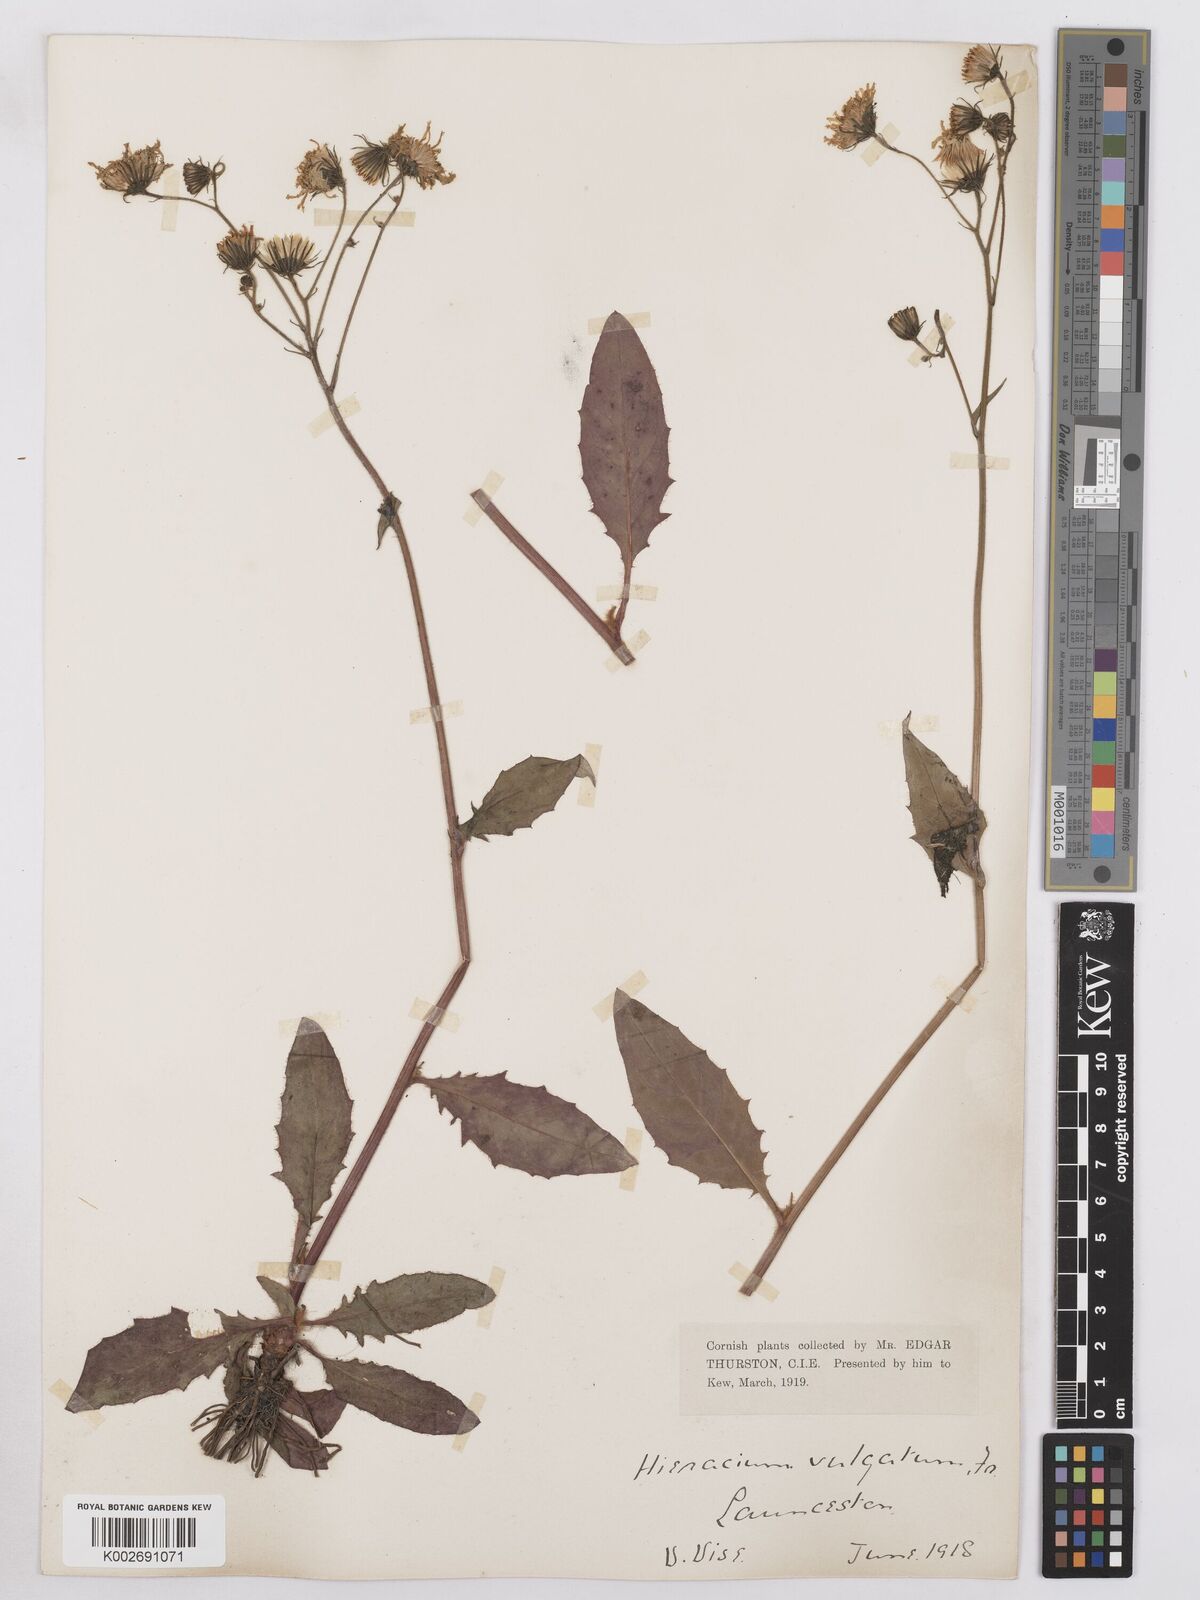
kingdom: Plantae
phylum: Tracheophyta
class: Magnoliopsida
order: Asterales
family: Asteraceae
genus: Hieracium
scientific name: Hieracium lachenalii
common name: Common hawkweed
